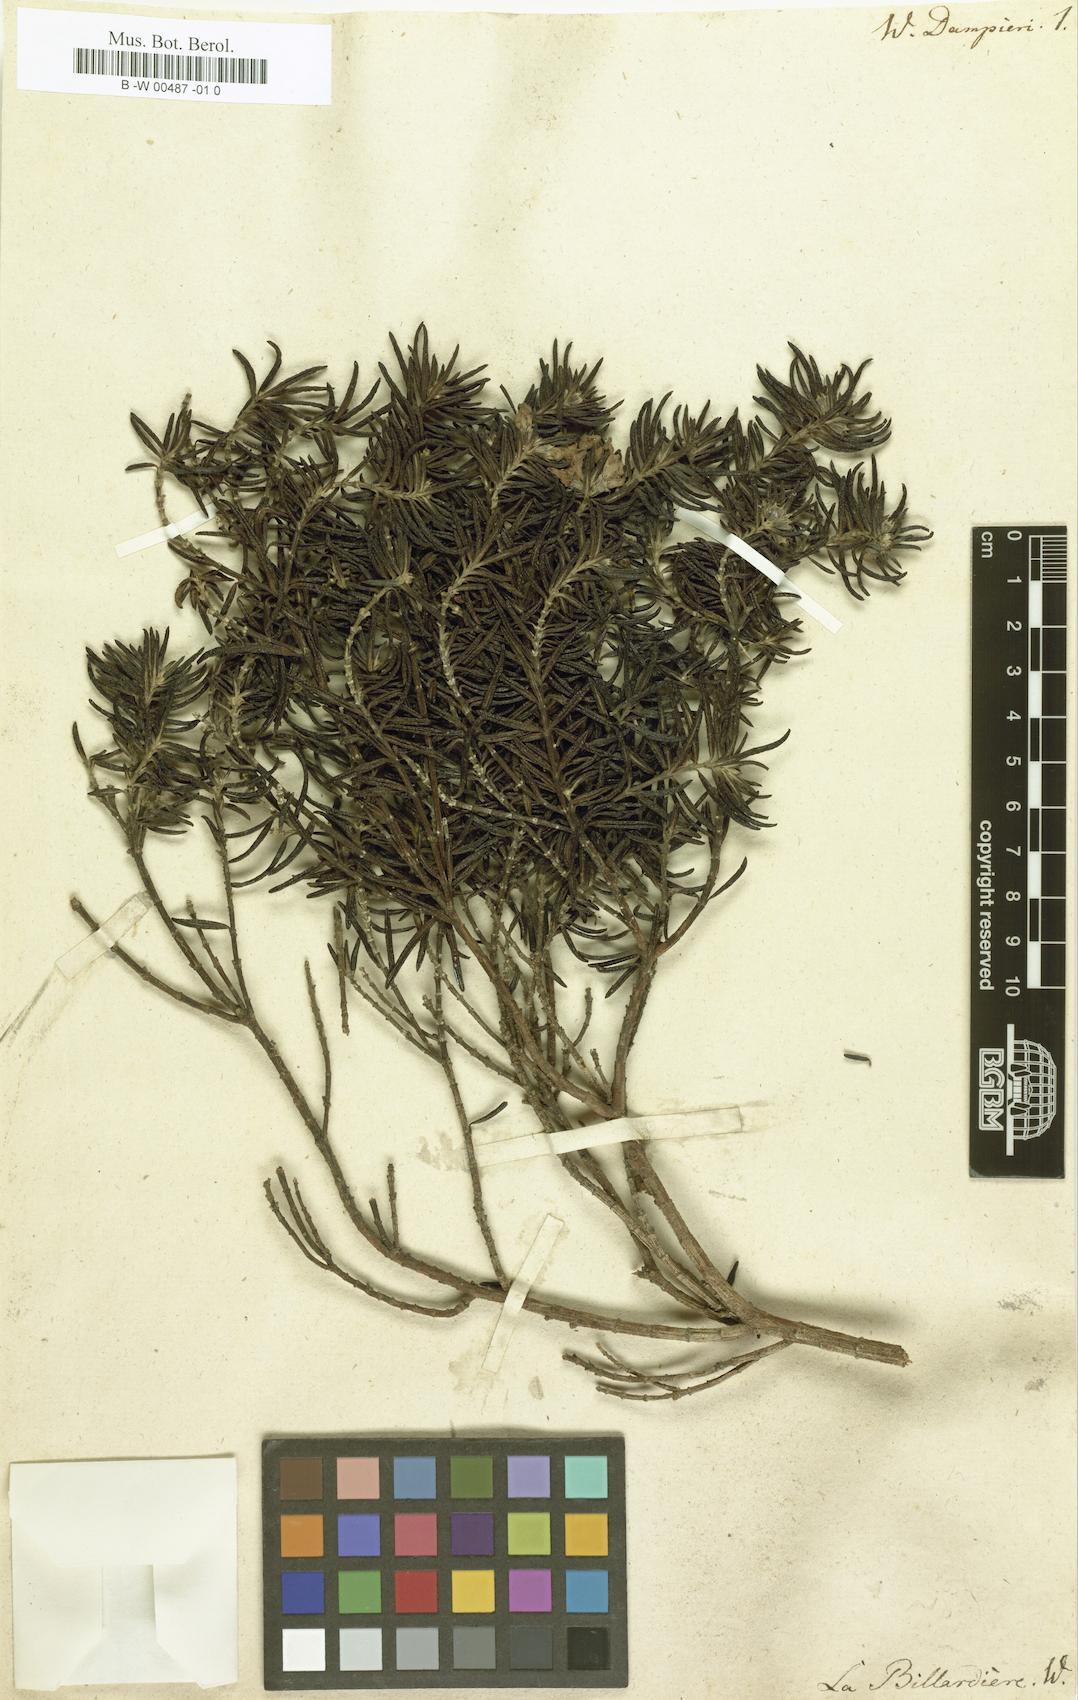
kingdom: Plantae
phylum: Tracheophyta
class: Magnoliopsida
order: Lamiales
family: Lamiaceae
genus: Westringia
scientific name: Westringia dampieri
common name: Shore westringia
